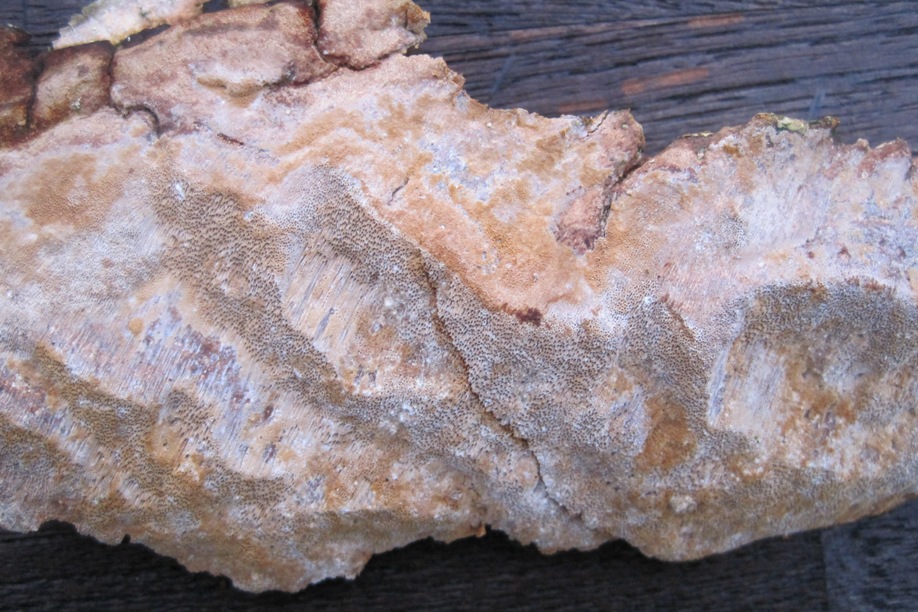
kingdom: Fungi
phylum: Basidiomycota
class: Agaricomycetes
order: Hymenochaetales
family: Hymenochaetaceae
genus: Fuscoporia
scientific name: Fuscoporia ferrea
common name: skorpe-ildporesvamp
